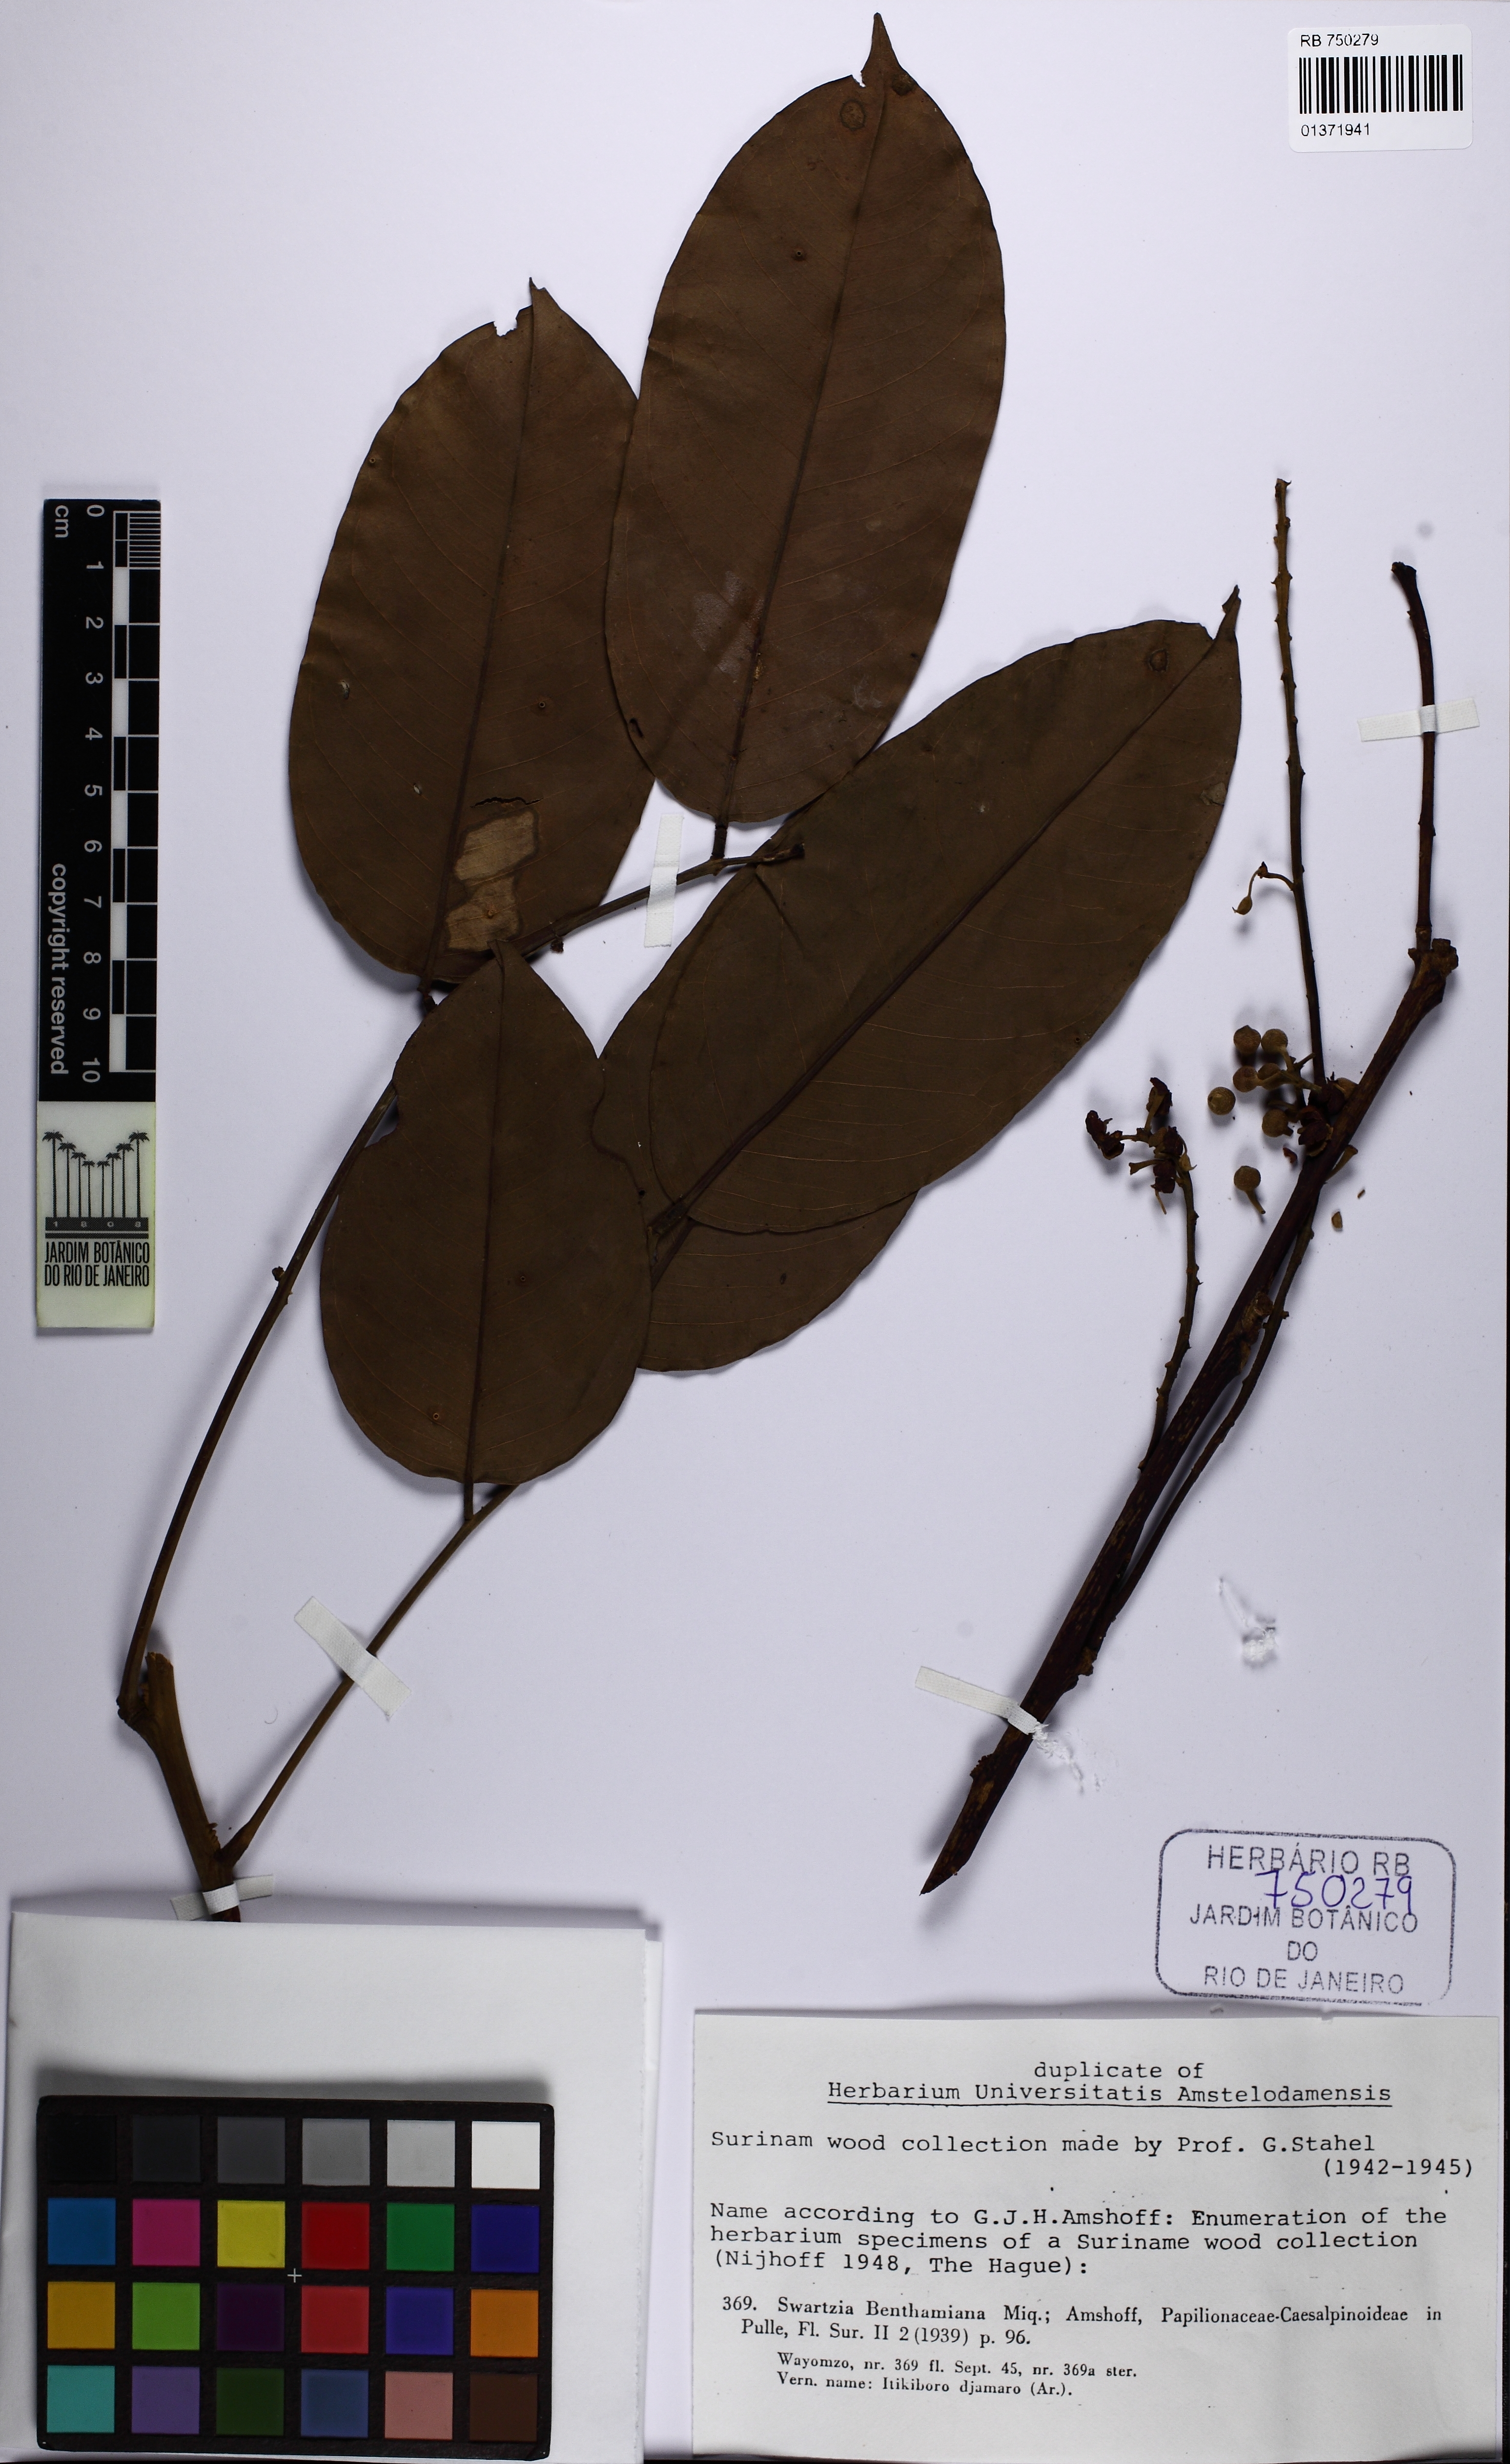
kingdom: Plantae
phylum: Tracheophyta
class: Magnoliopsida
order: Fabales
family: Fabaceae
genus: Swartzia
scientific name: Swartzia benthamiana
